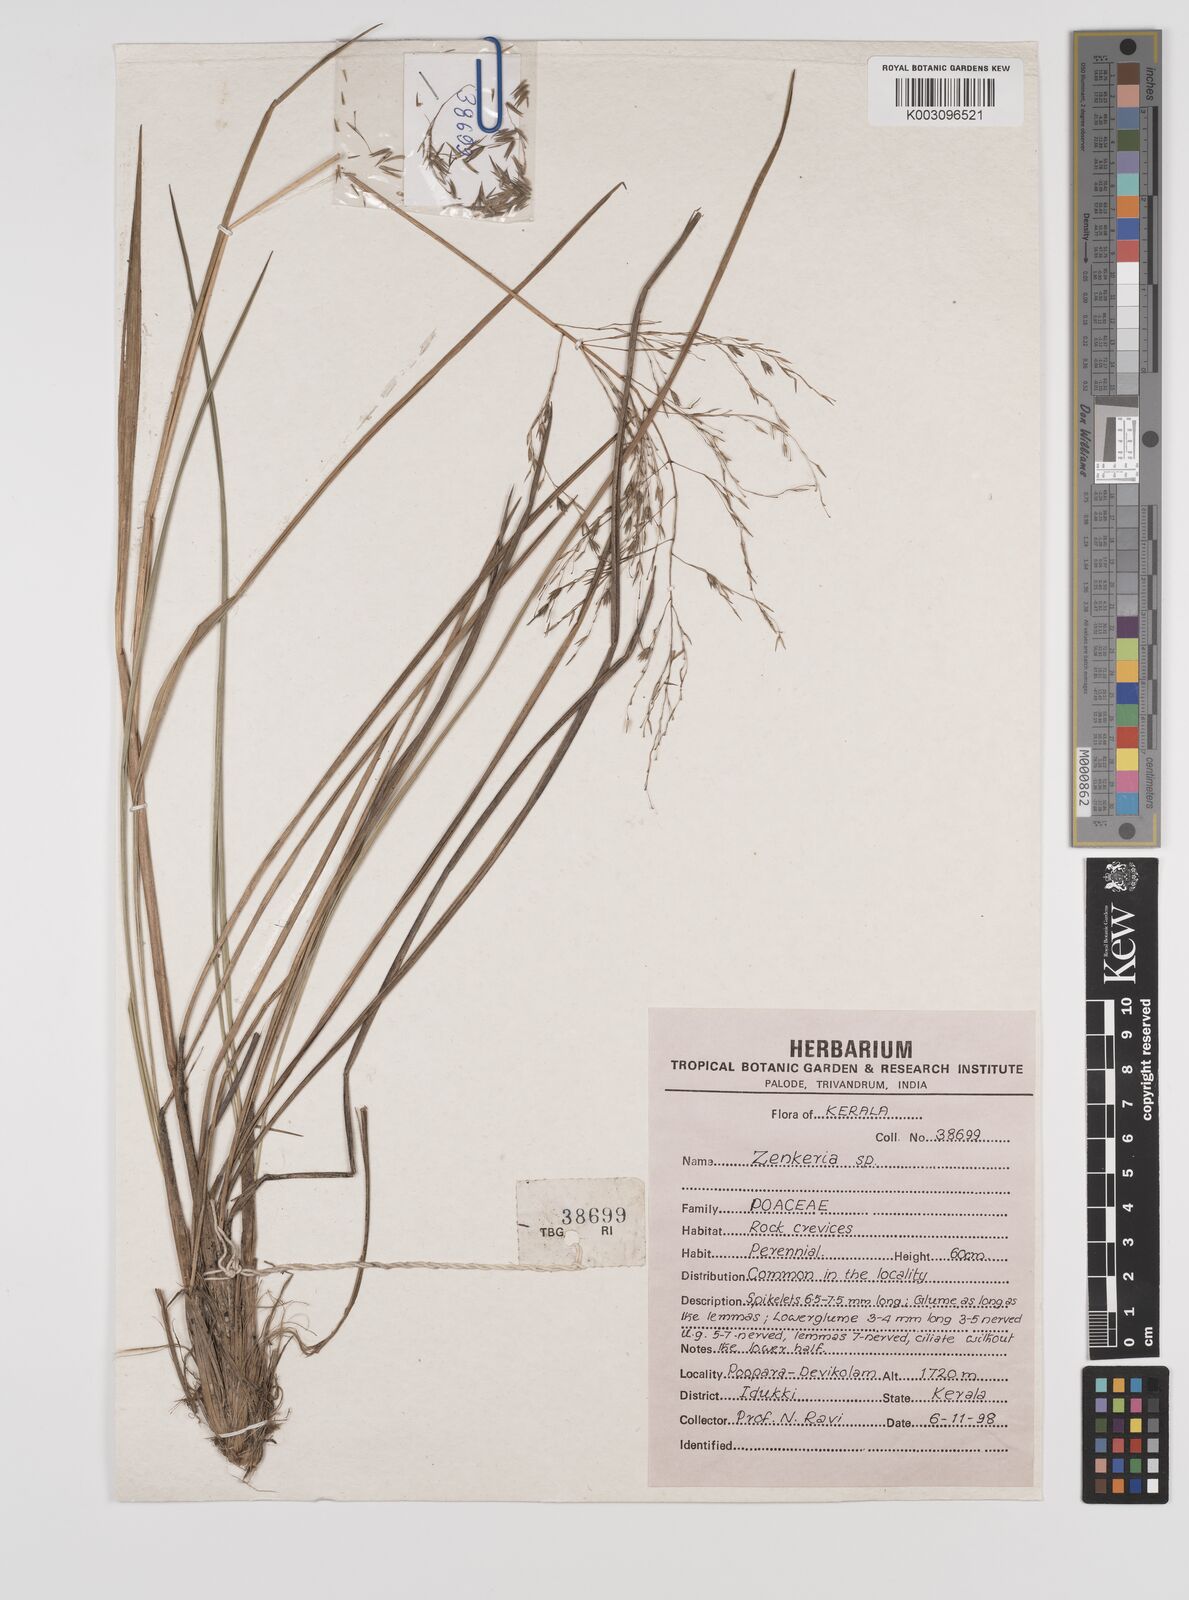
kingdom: Plantae
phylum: Tracheophyta
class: Liliopsida
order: Poales
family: Poaceae
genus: Zenkeria
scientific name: Zenkeria
